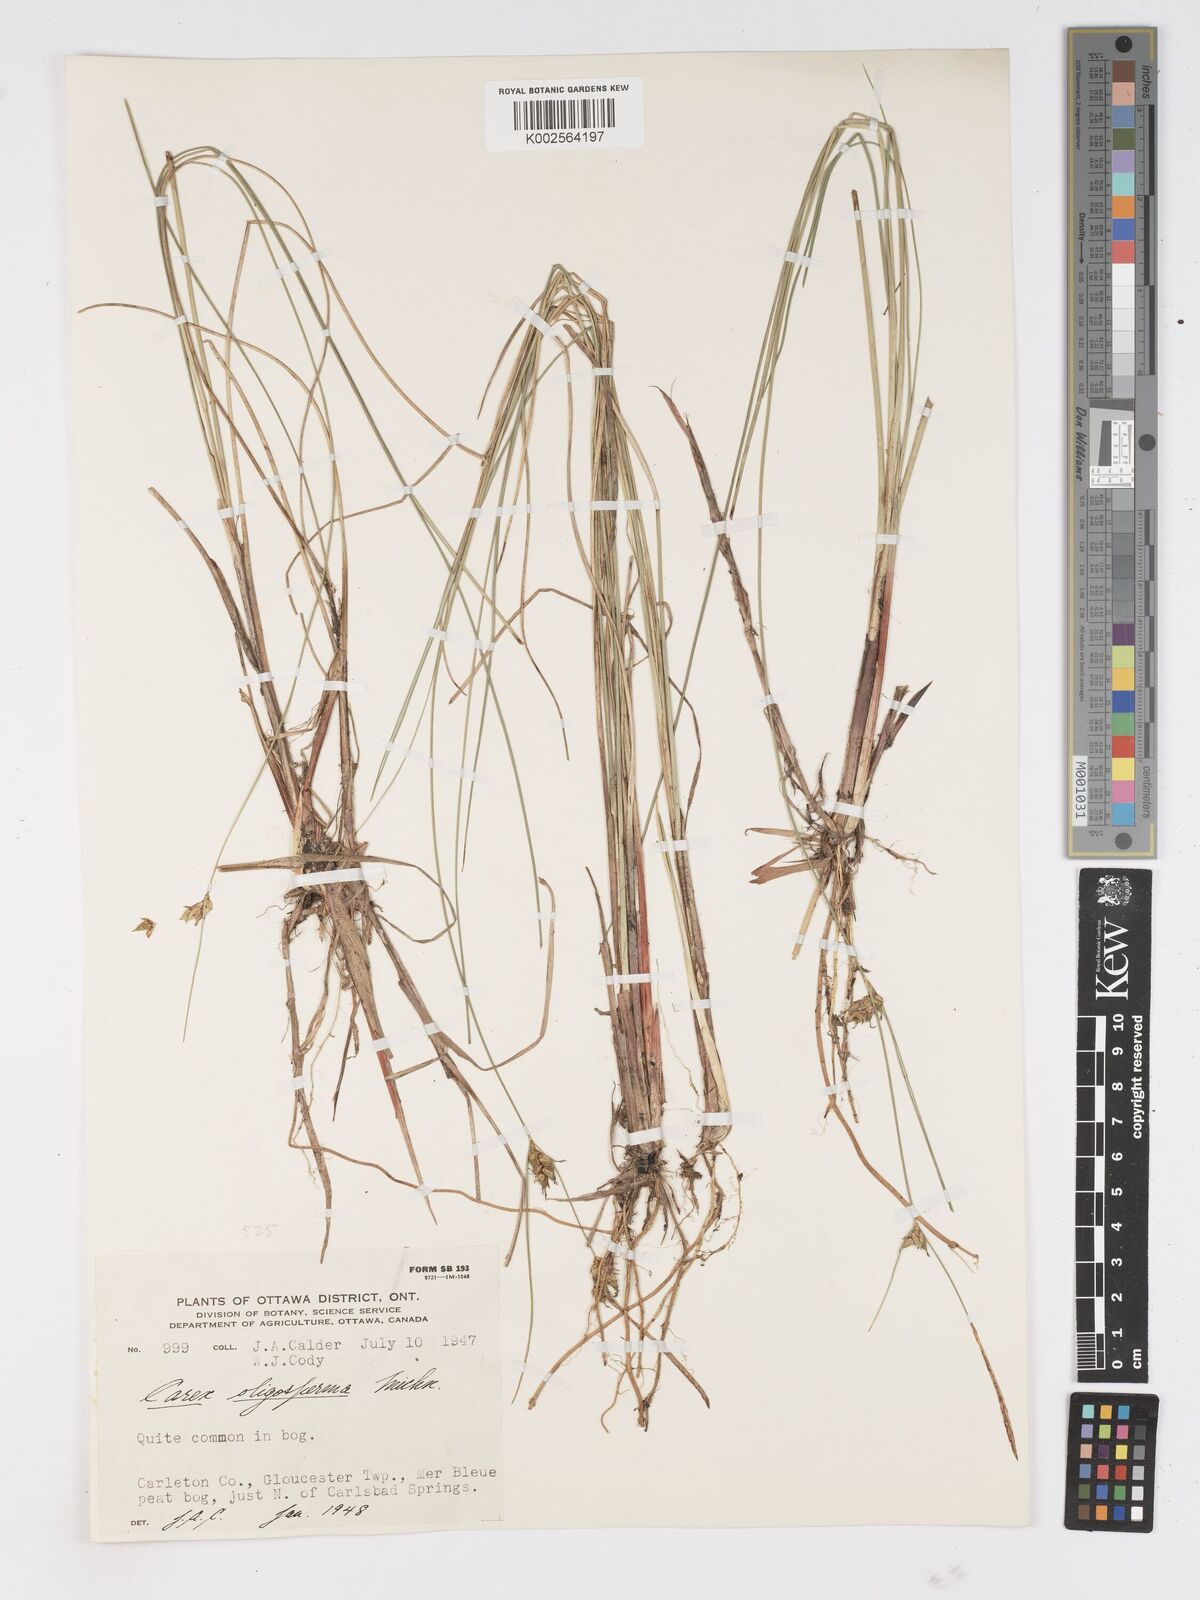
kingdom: Plantae
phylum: Tracheophyta
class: Liliopsida
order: Poales
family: Cyperaceae
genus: Carex
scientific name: Carex oligosperma
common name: Few-seed sedge
